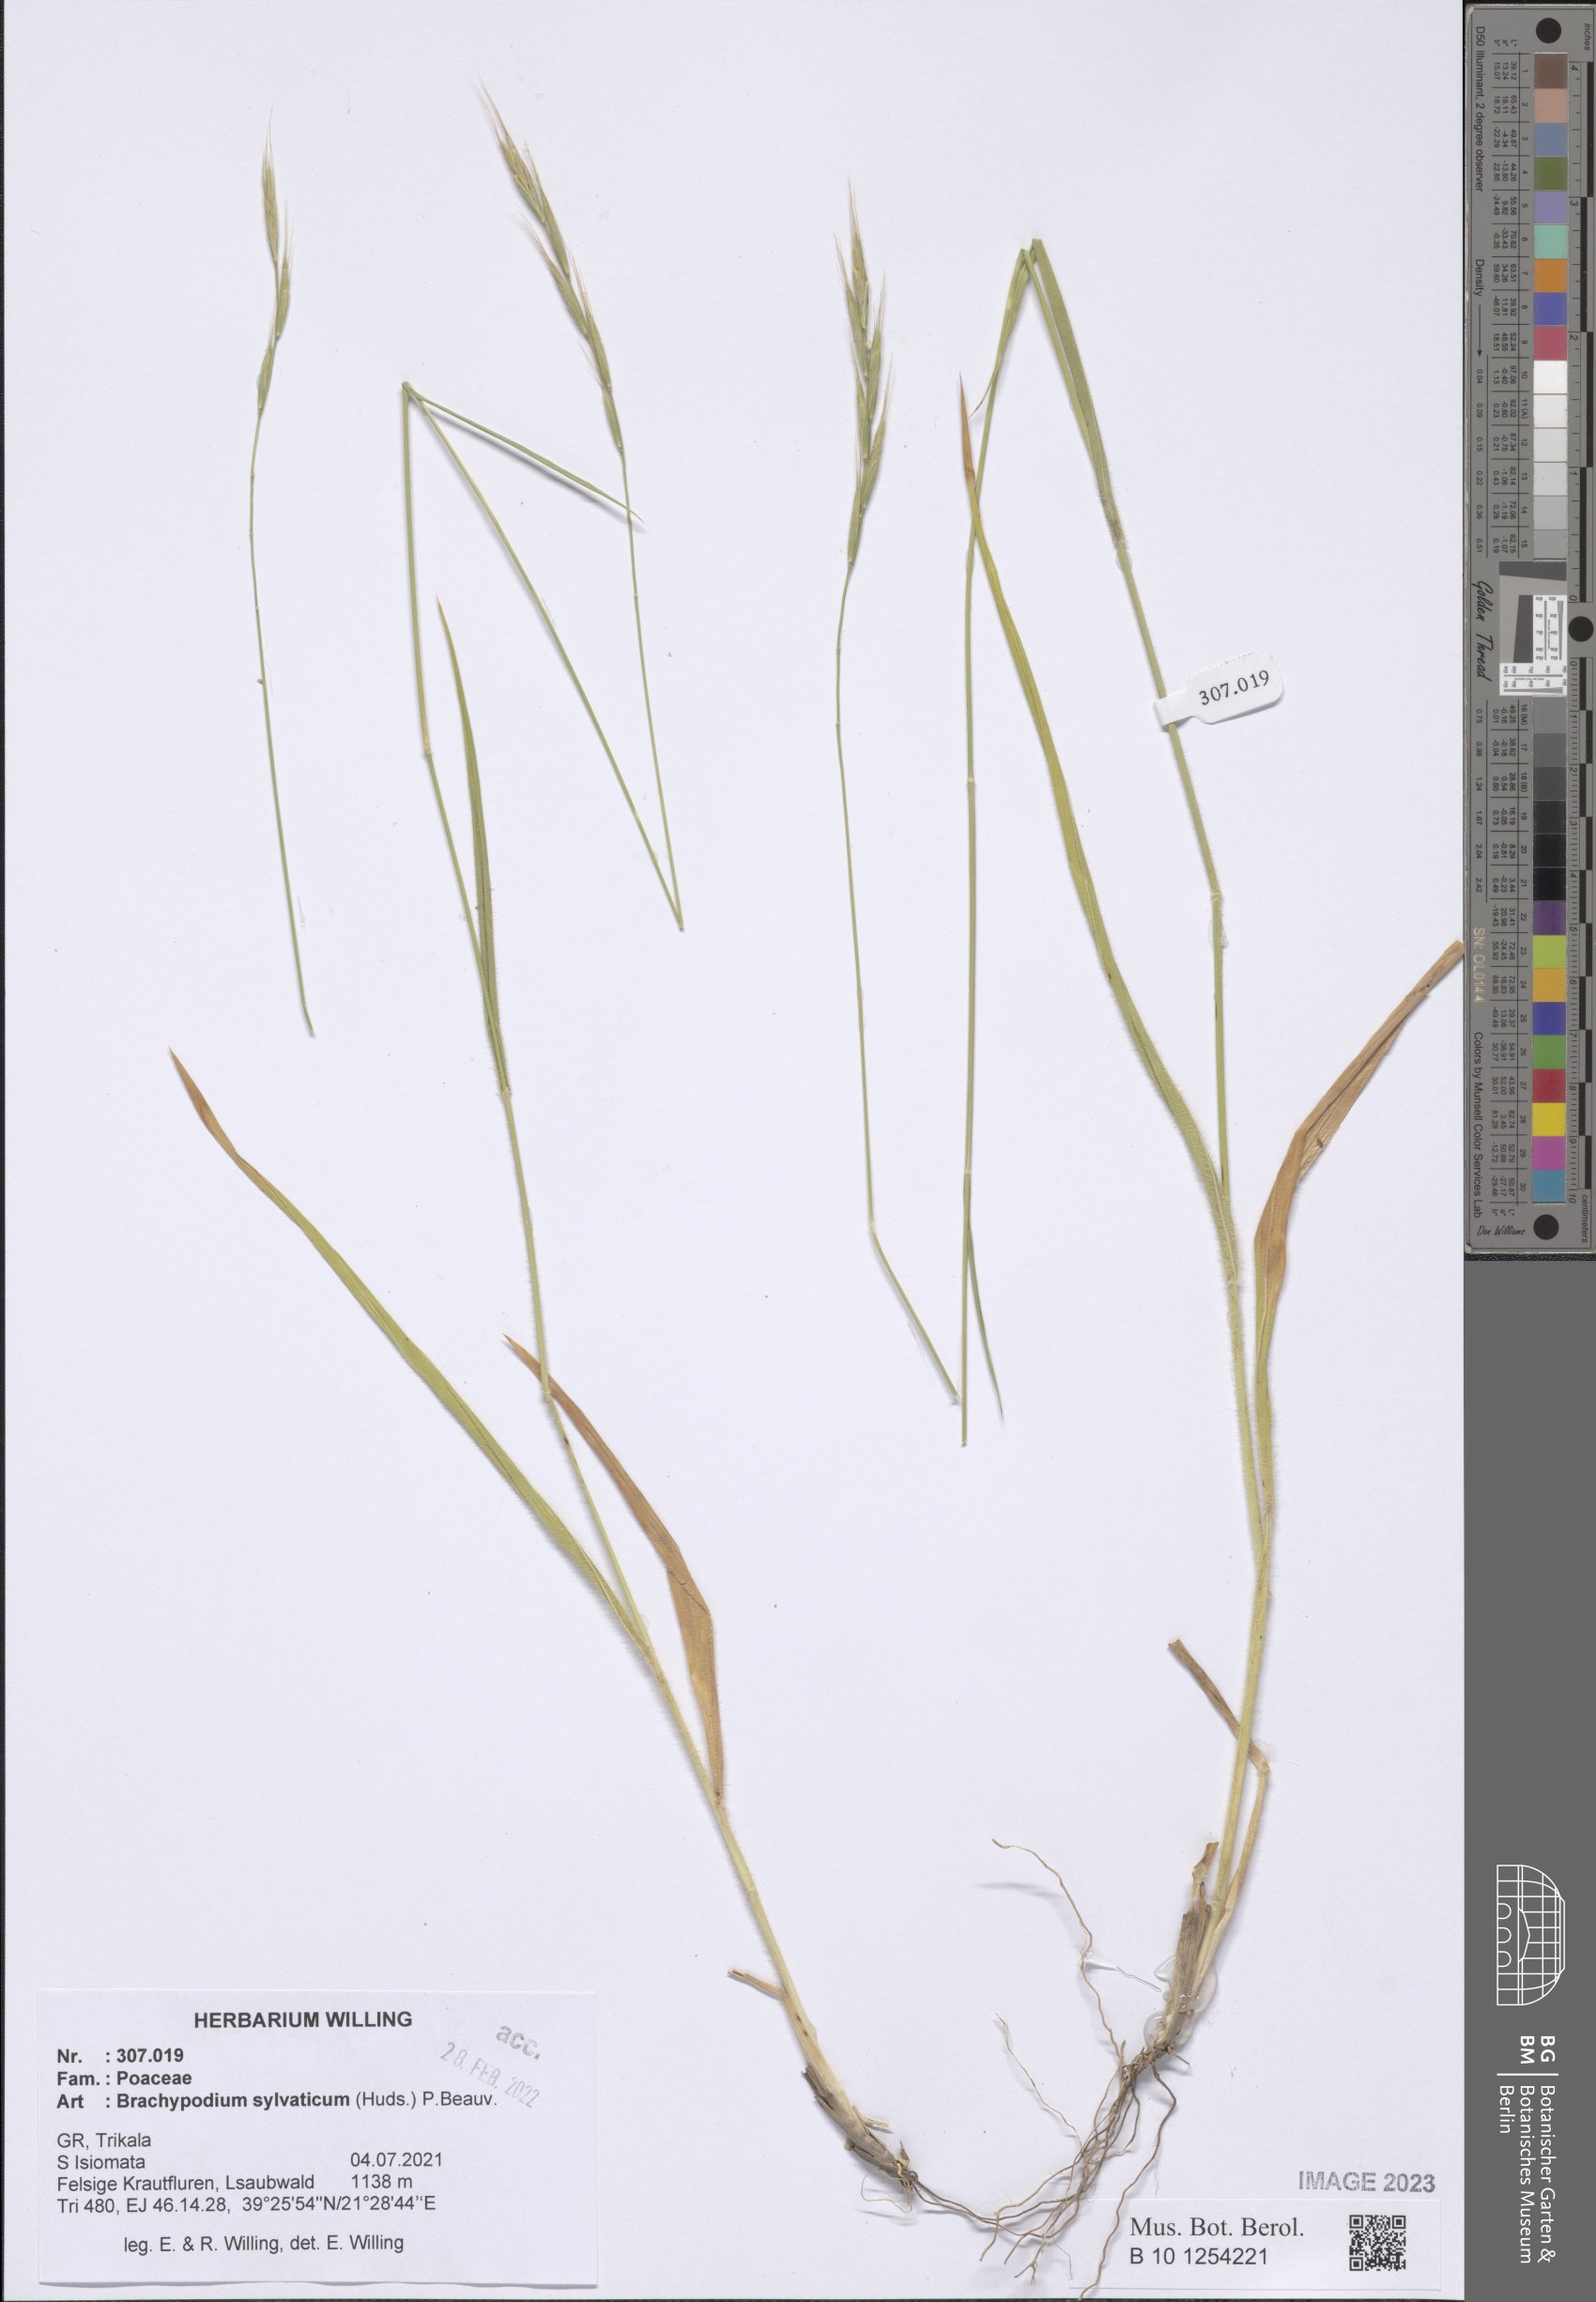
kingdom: Plantae
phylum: Tracheophyta
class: Liliopsida
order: Poales
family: Poaceae
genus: Brachypodium
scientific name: Brachypodium sylvaticum
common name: False-brome
